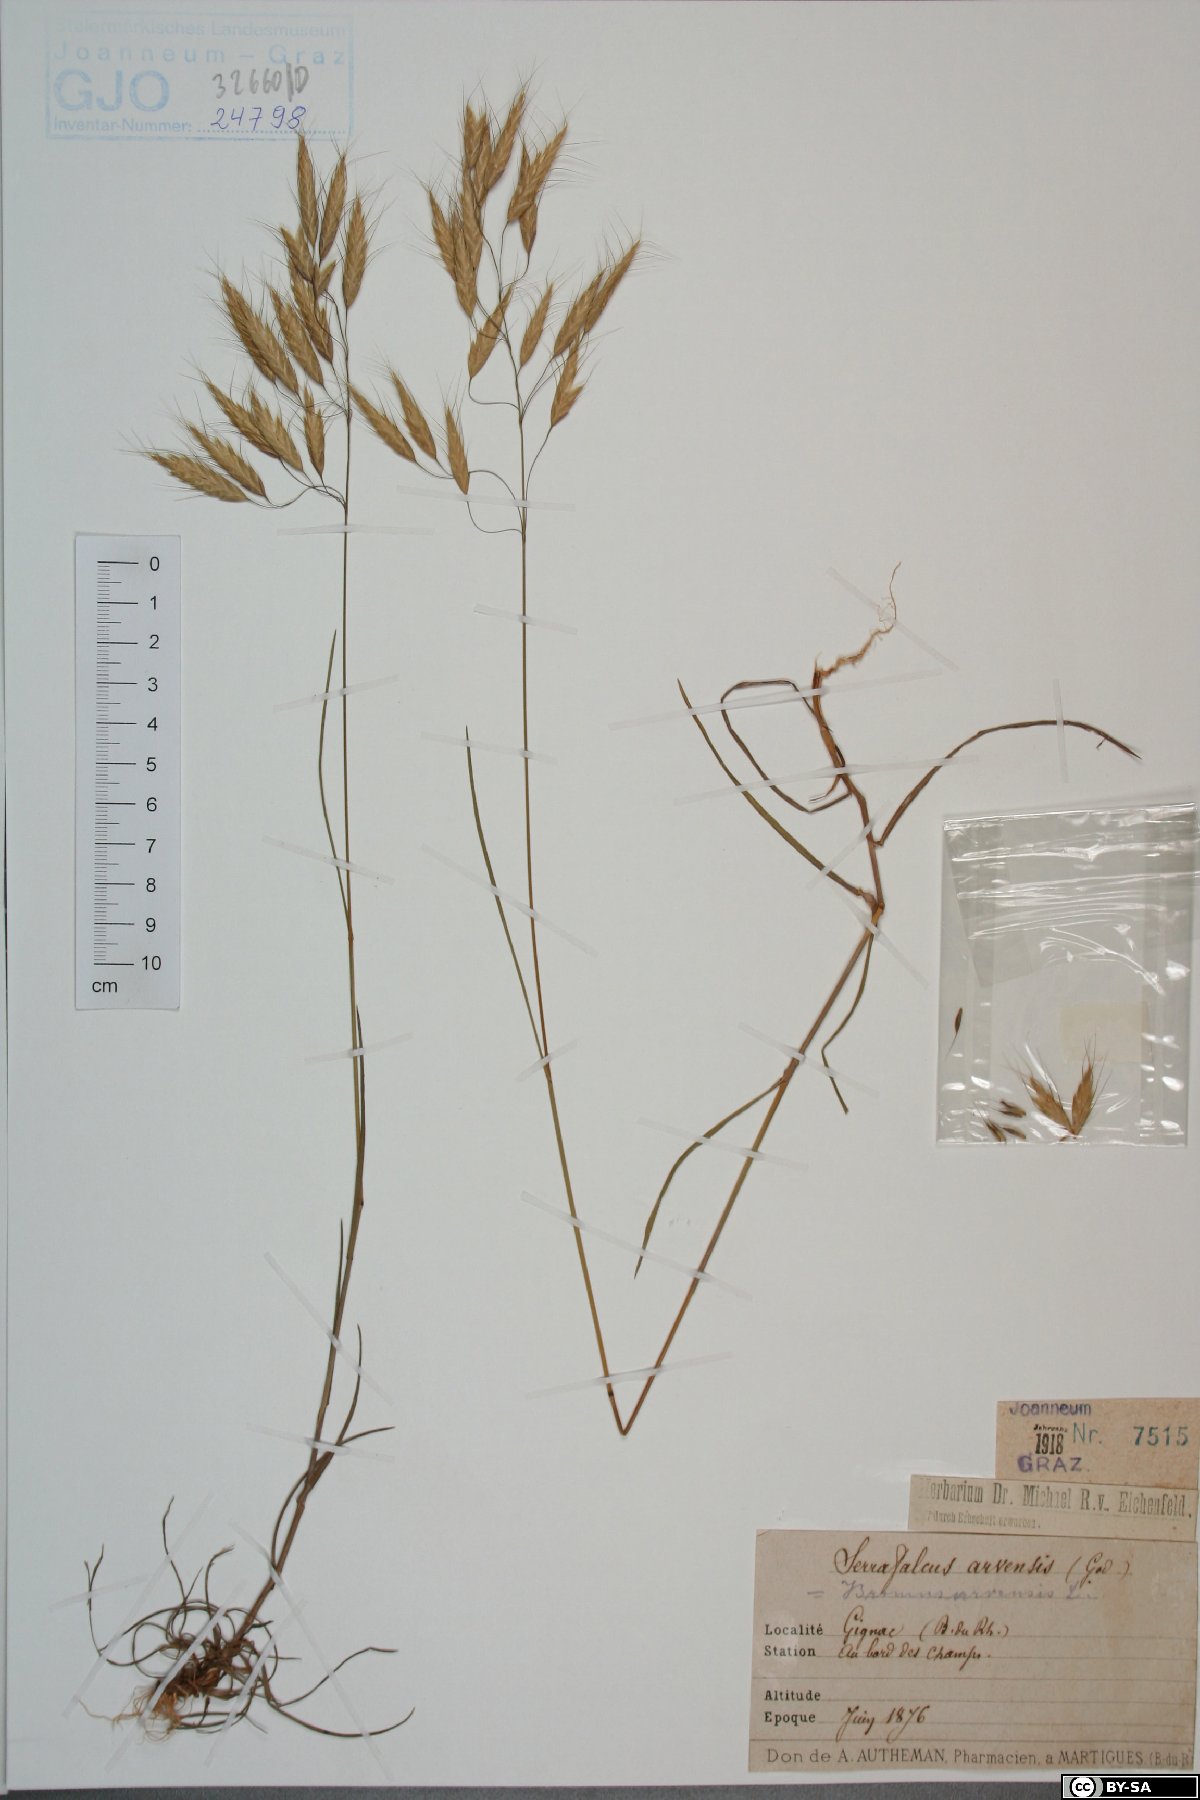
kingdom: Plantae
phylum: Tracheophyta
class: Liliopsida
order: Poales
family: Poaceae
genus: Bromus
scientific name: Bromus arvensis
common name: Field brome
